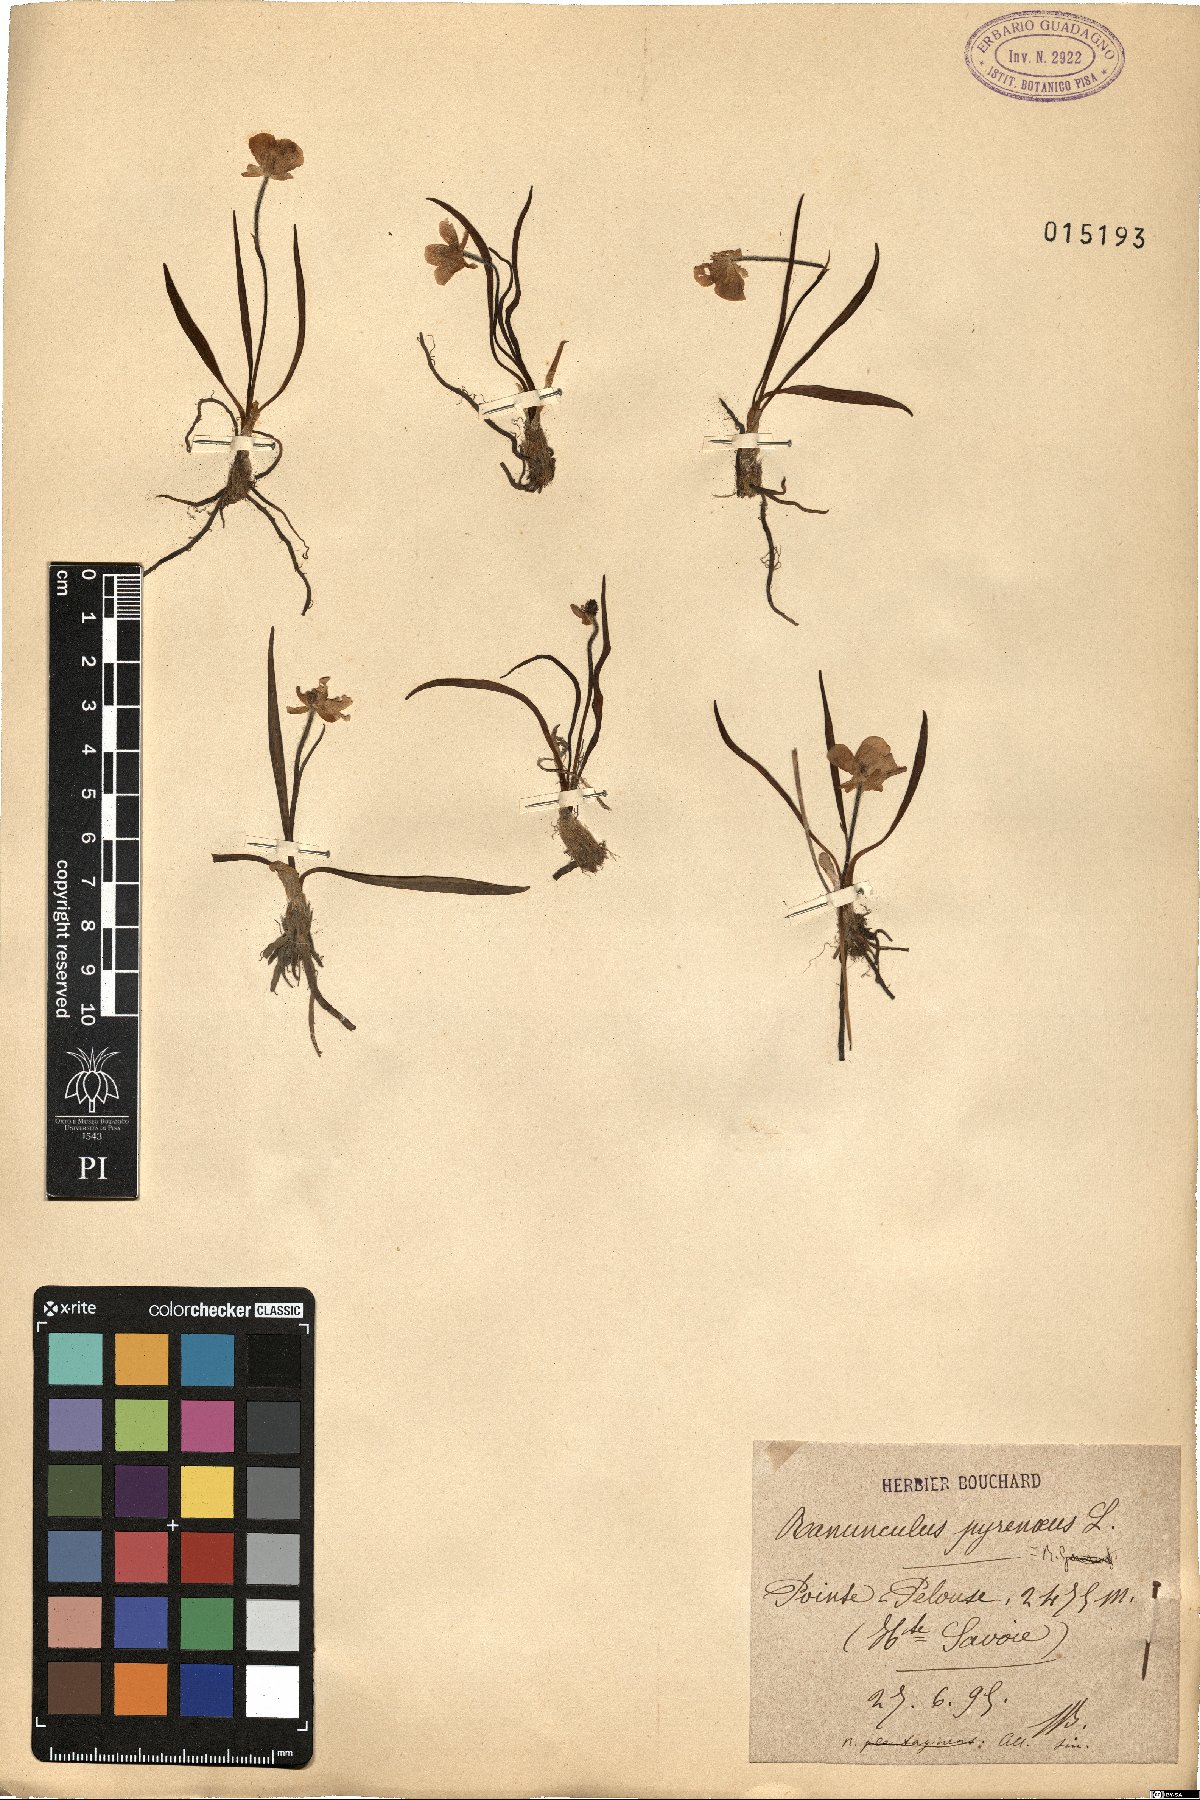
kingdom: Plantae
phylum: Tracheophyta
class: Magnoliopsida
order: Ranunculales
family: Ranunculaceae
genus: Ranunculus
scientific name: Ranunculus pyrenaeus
